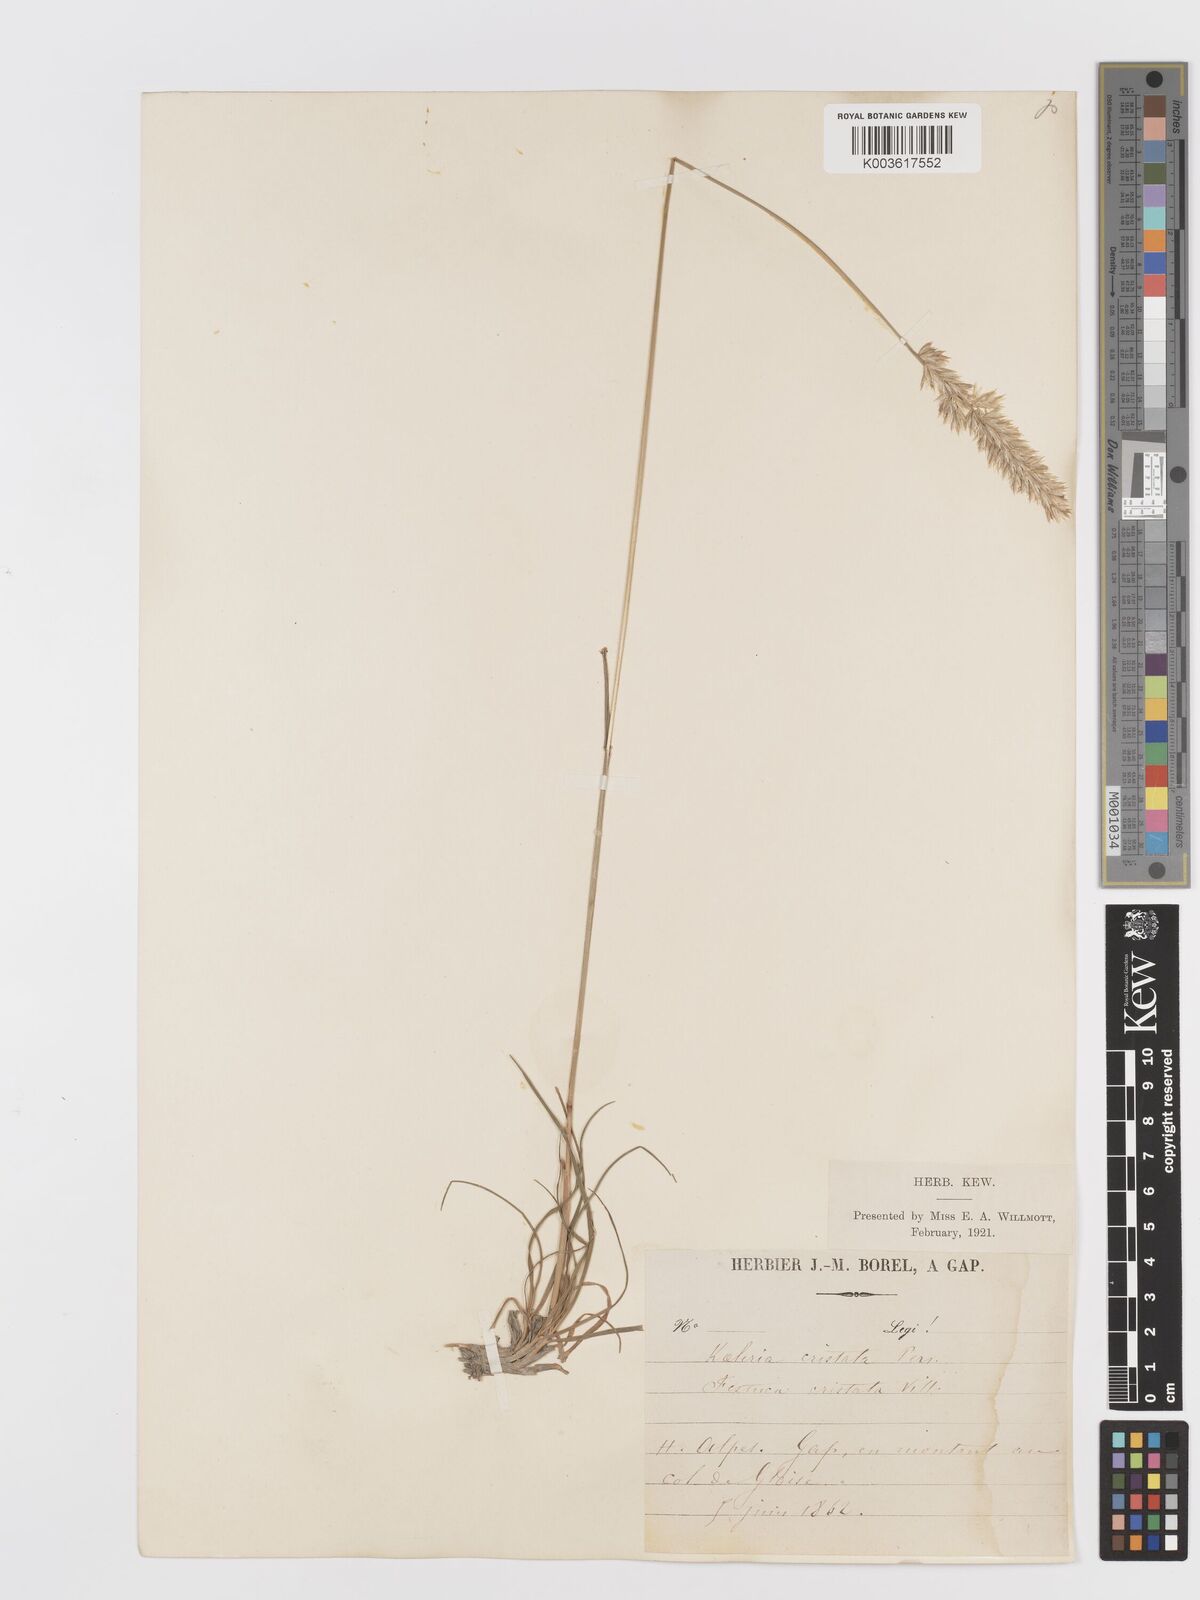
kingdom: Plantae
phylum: Tracheophyta
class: Liliopsida
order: Poales
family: Poaceae
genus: Koeleria
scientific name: Koeleria
